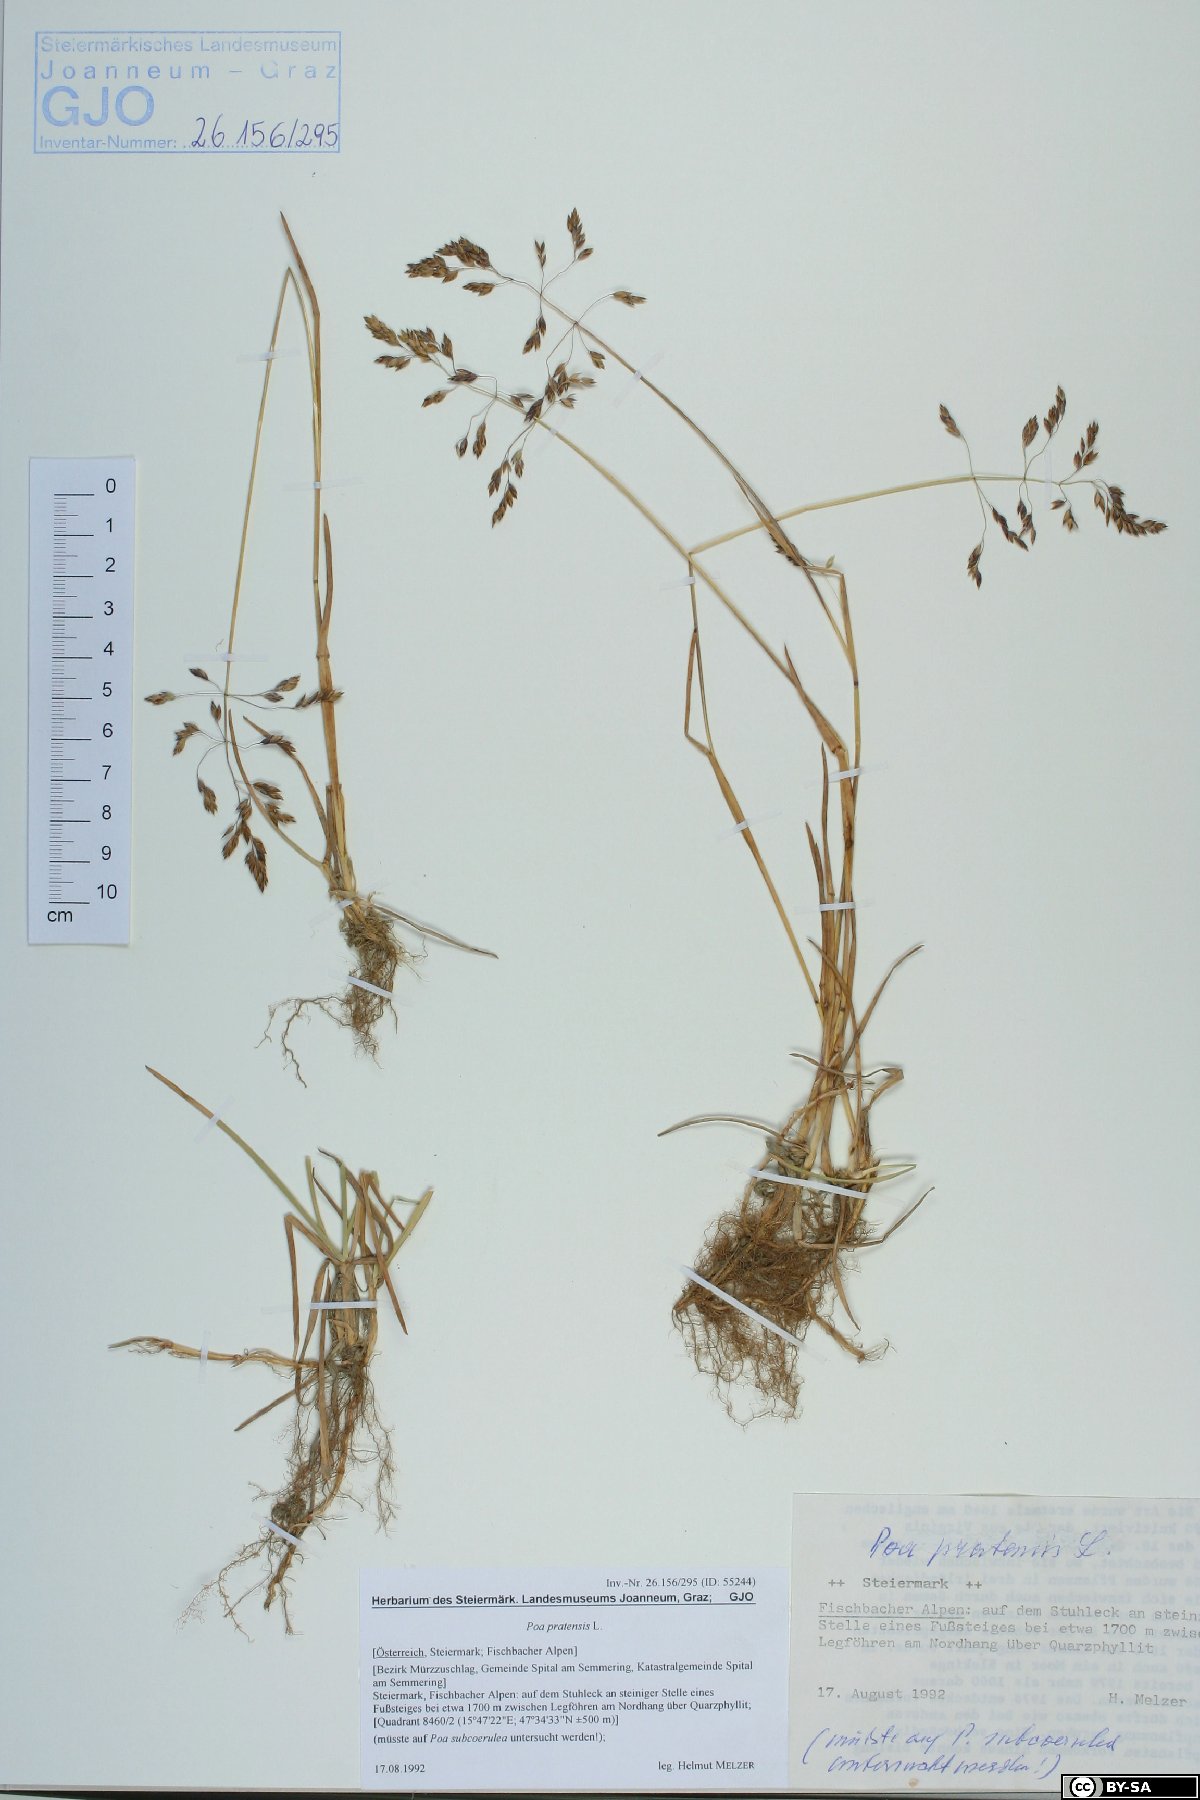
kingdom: Plantae
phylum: Tracheophyta
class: Liliopsida
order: Poales
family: Poaceae
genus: Poa
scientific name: Poa pratensis
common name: Kentucky bluegrass
